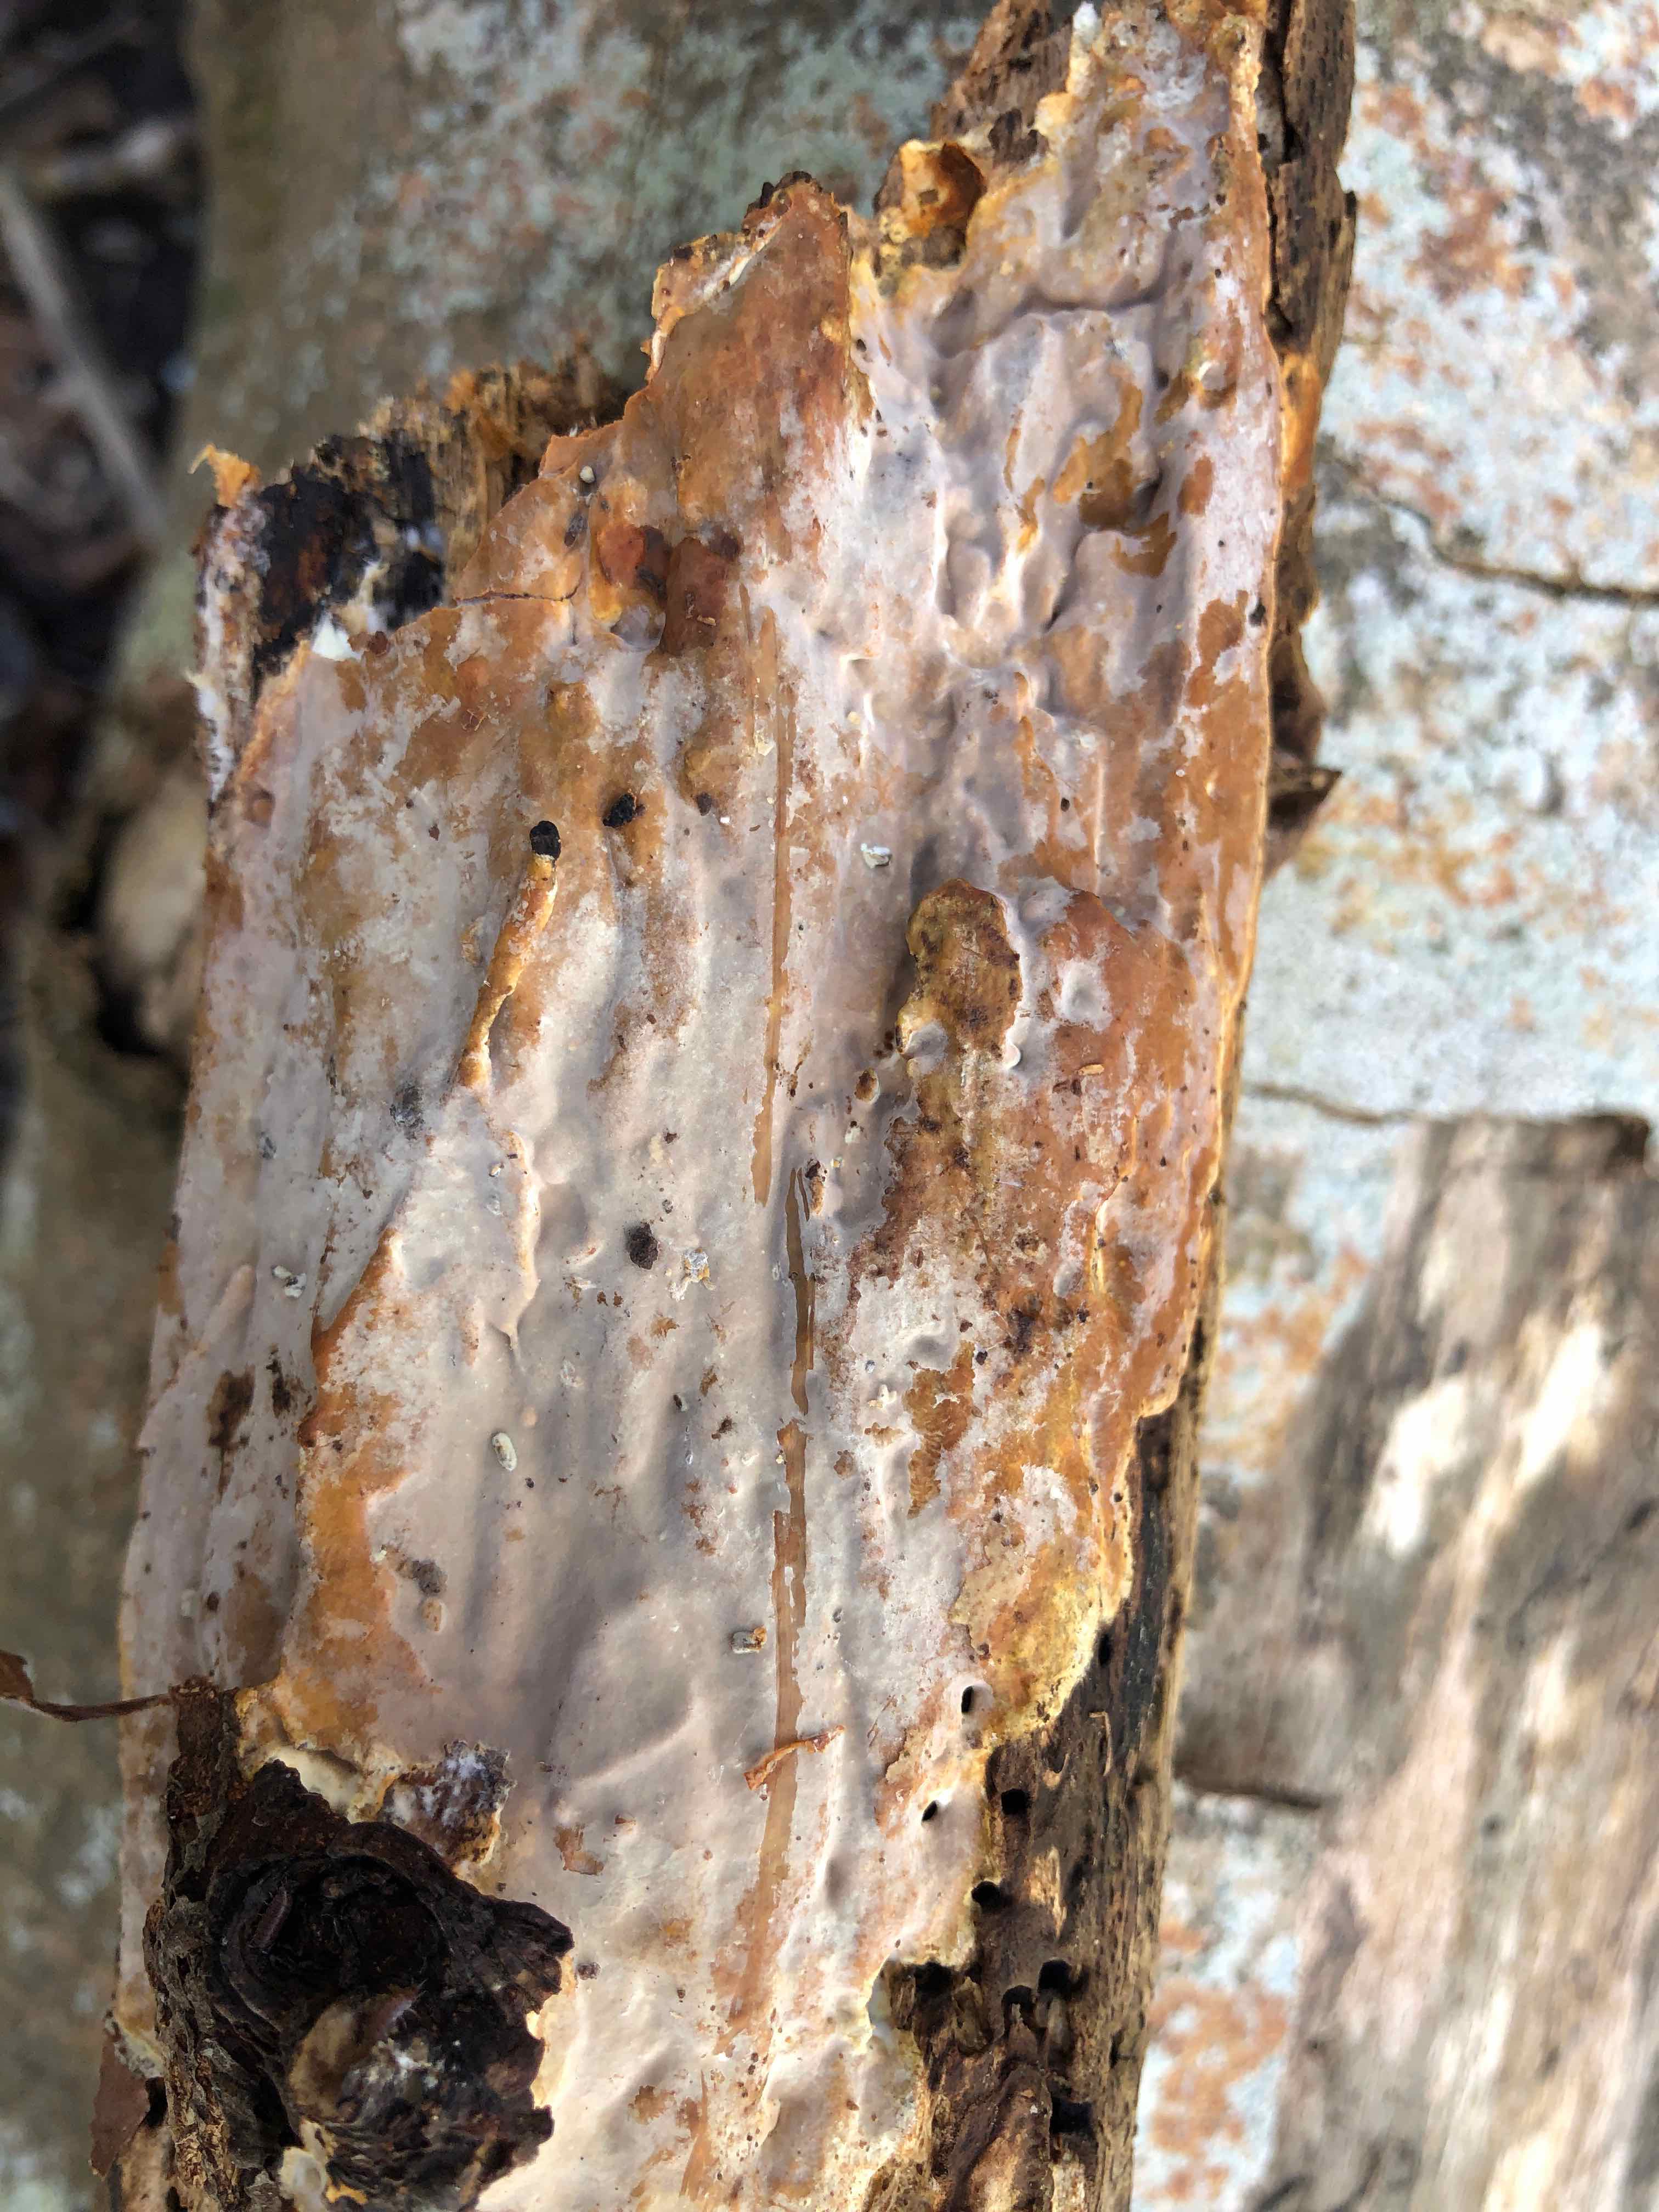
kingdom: Fungi
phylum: Basidiomycota
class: Agaricomycetes
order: Russulales
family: Peniophoraceae
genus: Scytinostroma
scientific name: Scytinostroma hemidichophyticum
